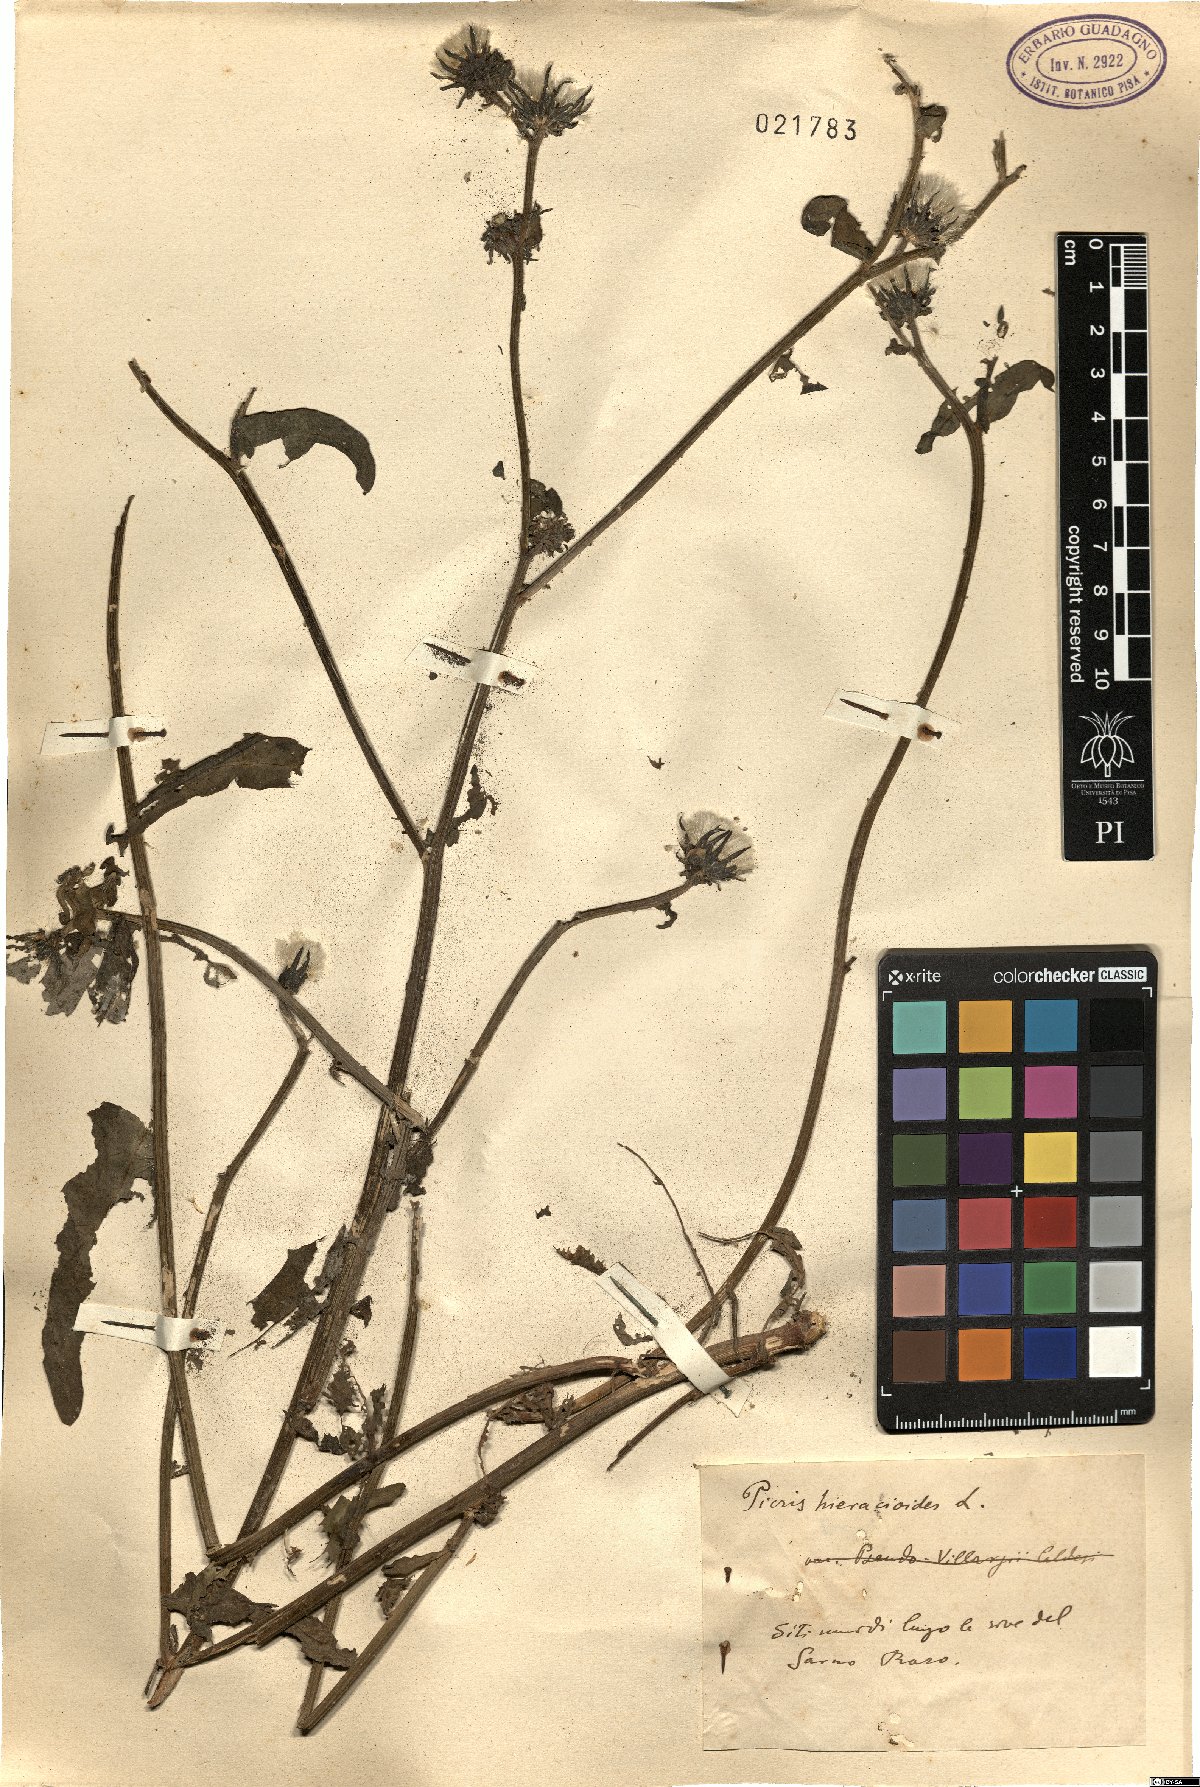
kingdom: Plantae
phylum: Tracheophyta
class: Magnoliopsida
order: Asterales
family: Asteraceae
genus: Picris
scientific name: Picris hieracioides
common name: Hawkweed oxtongue
